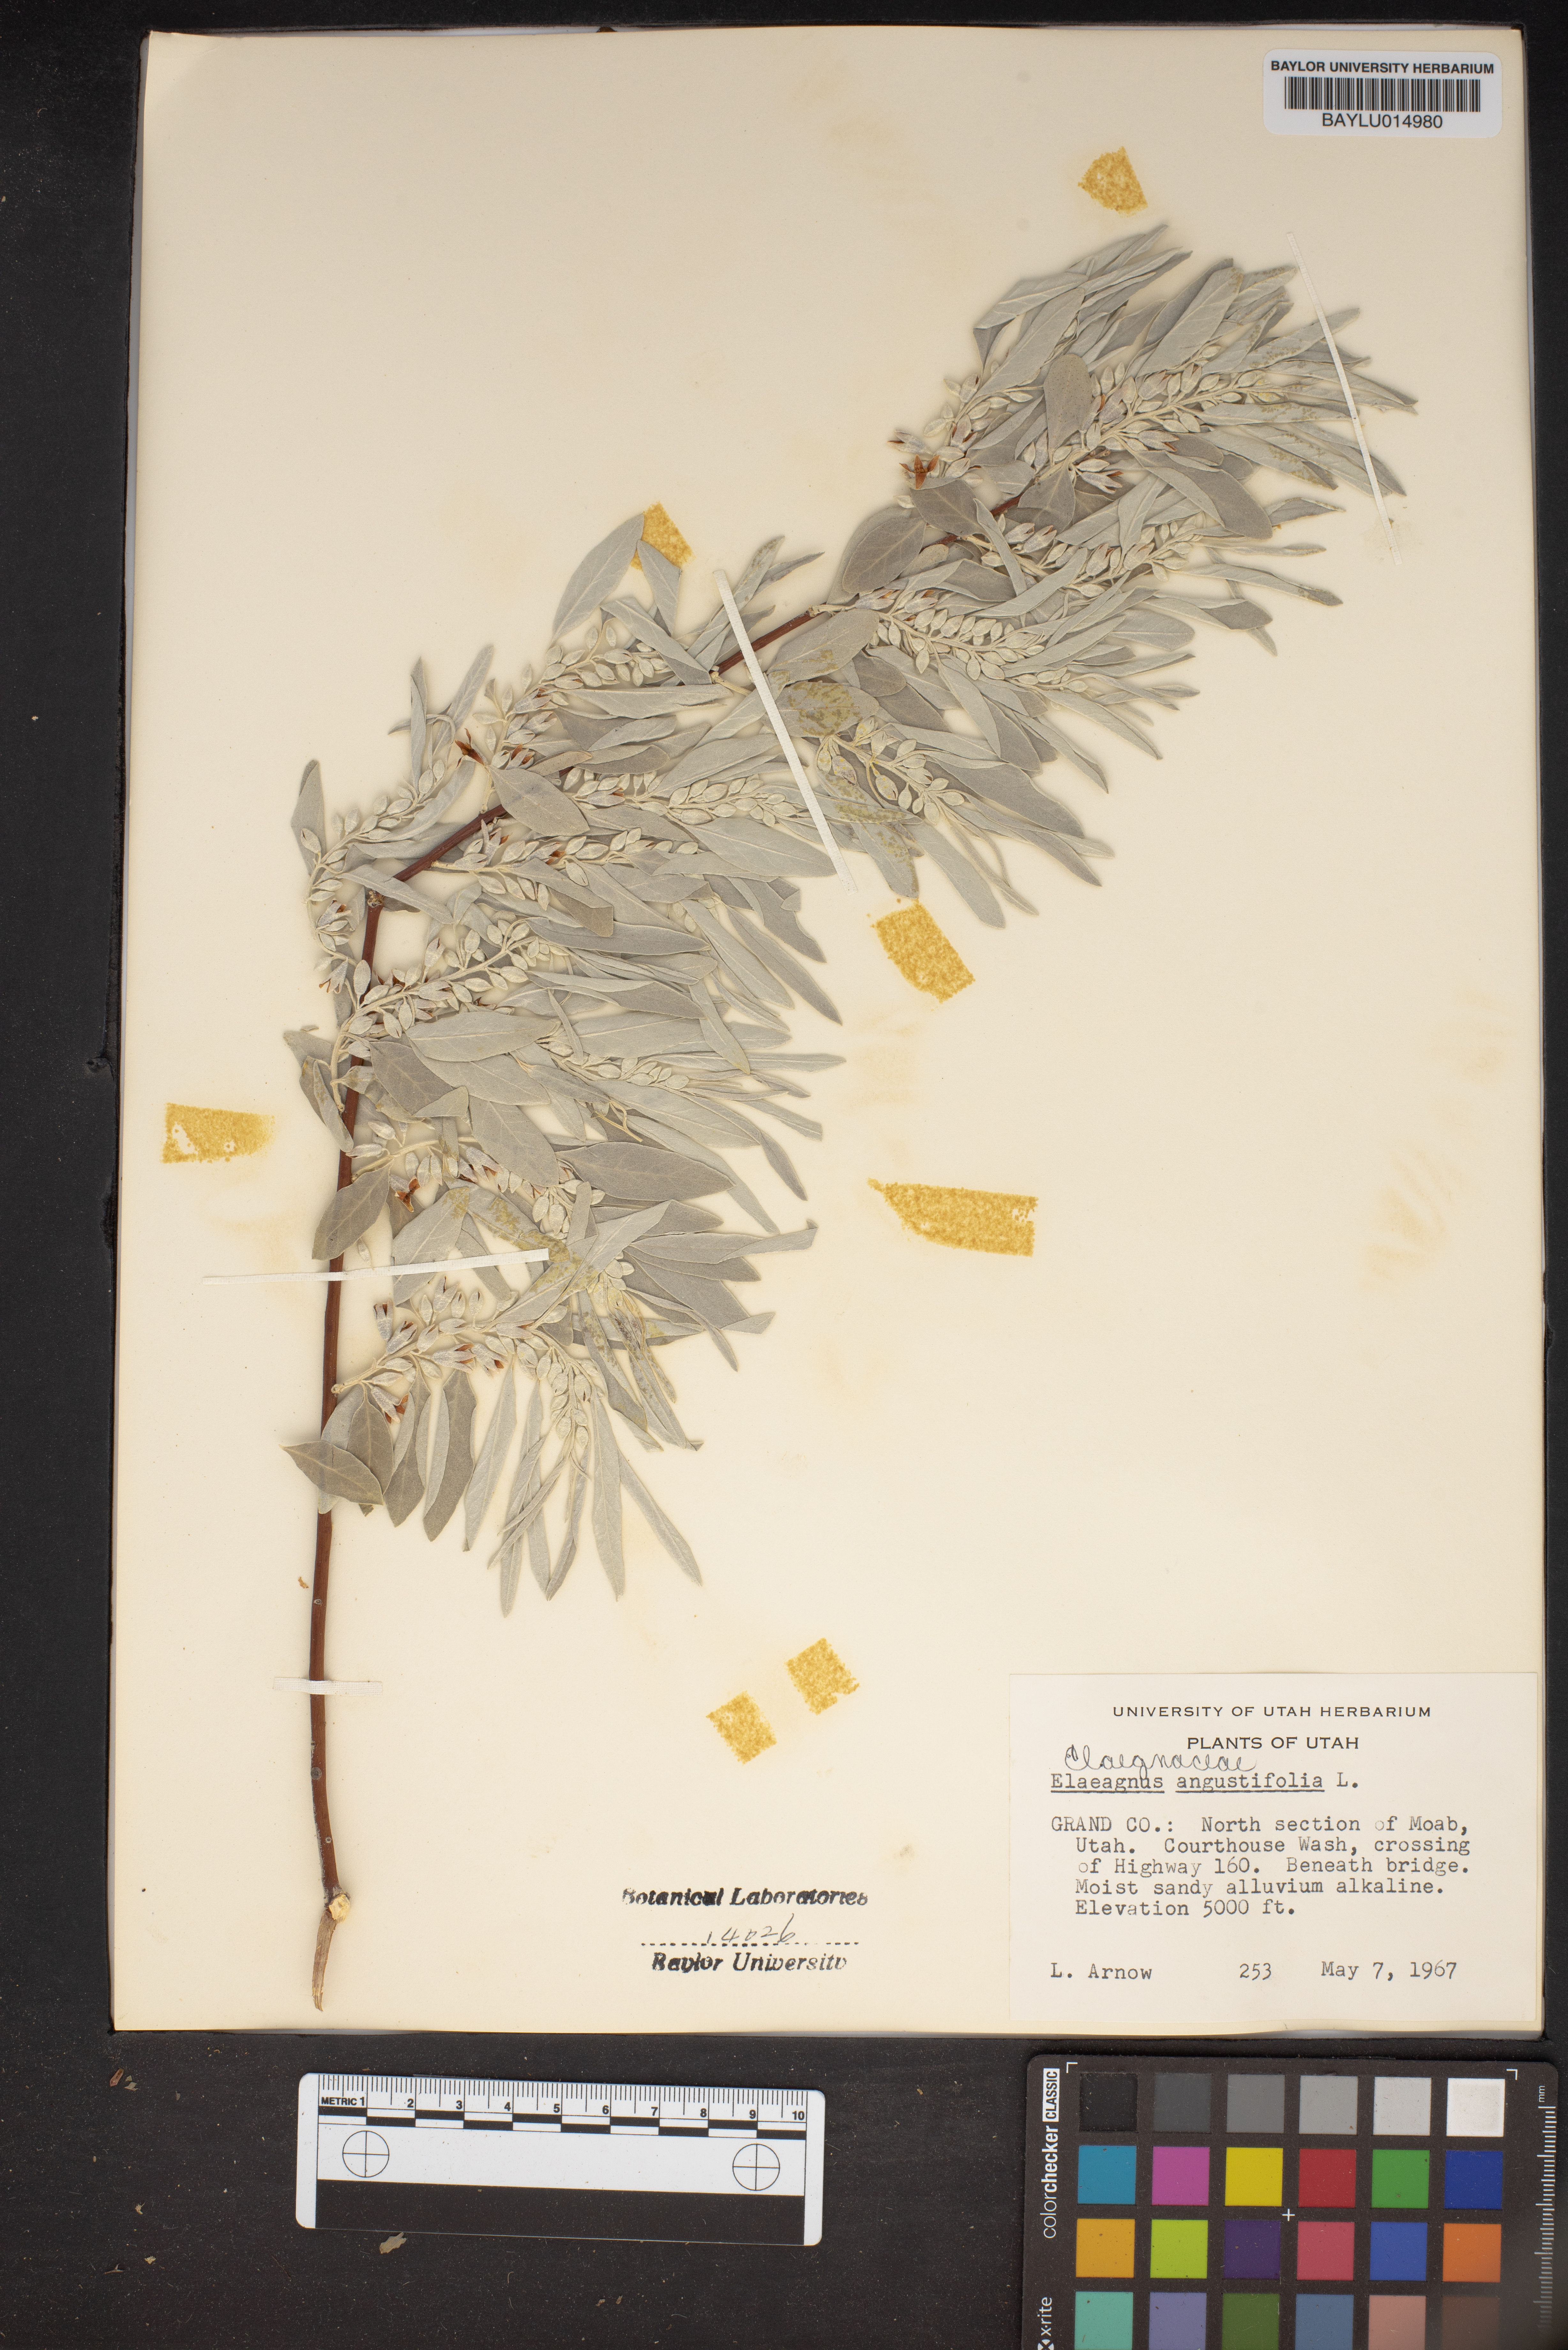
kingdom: Plantae
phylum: Tracheophyta
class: Magnoliopsida
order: Rosales
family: Elaeagnaceae
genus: Elaeagnus
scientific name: Elaeagnus angustifolia
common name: Russian olive
